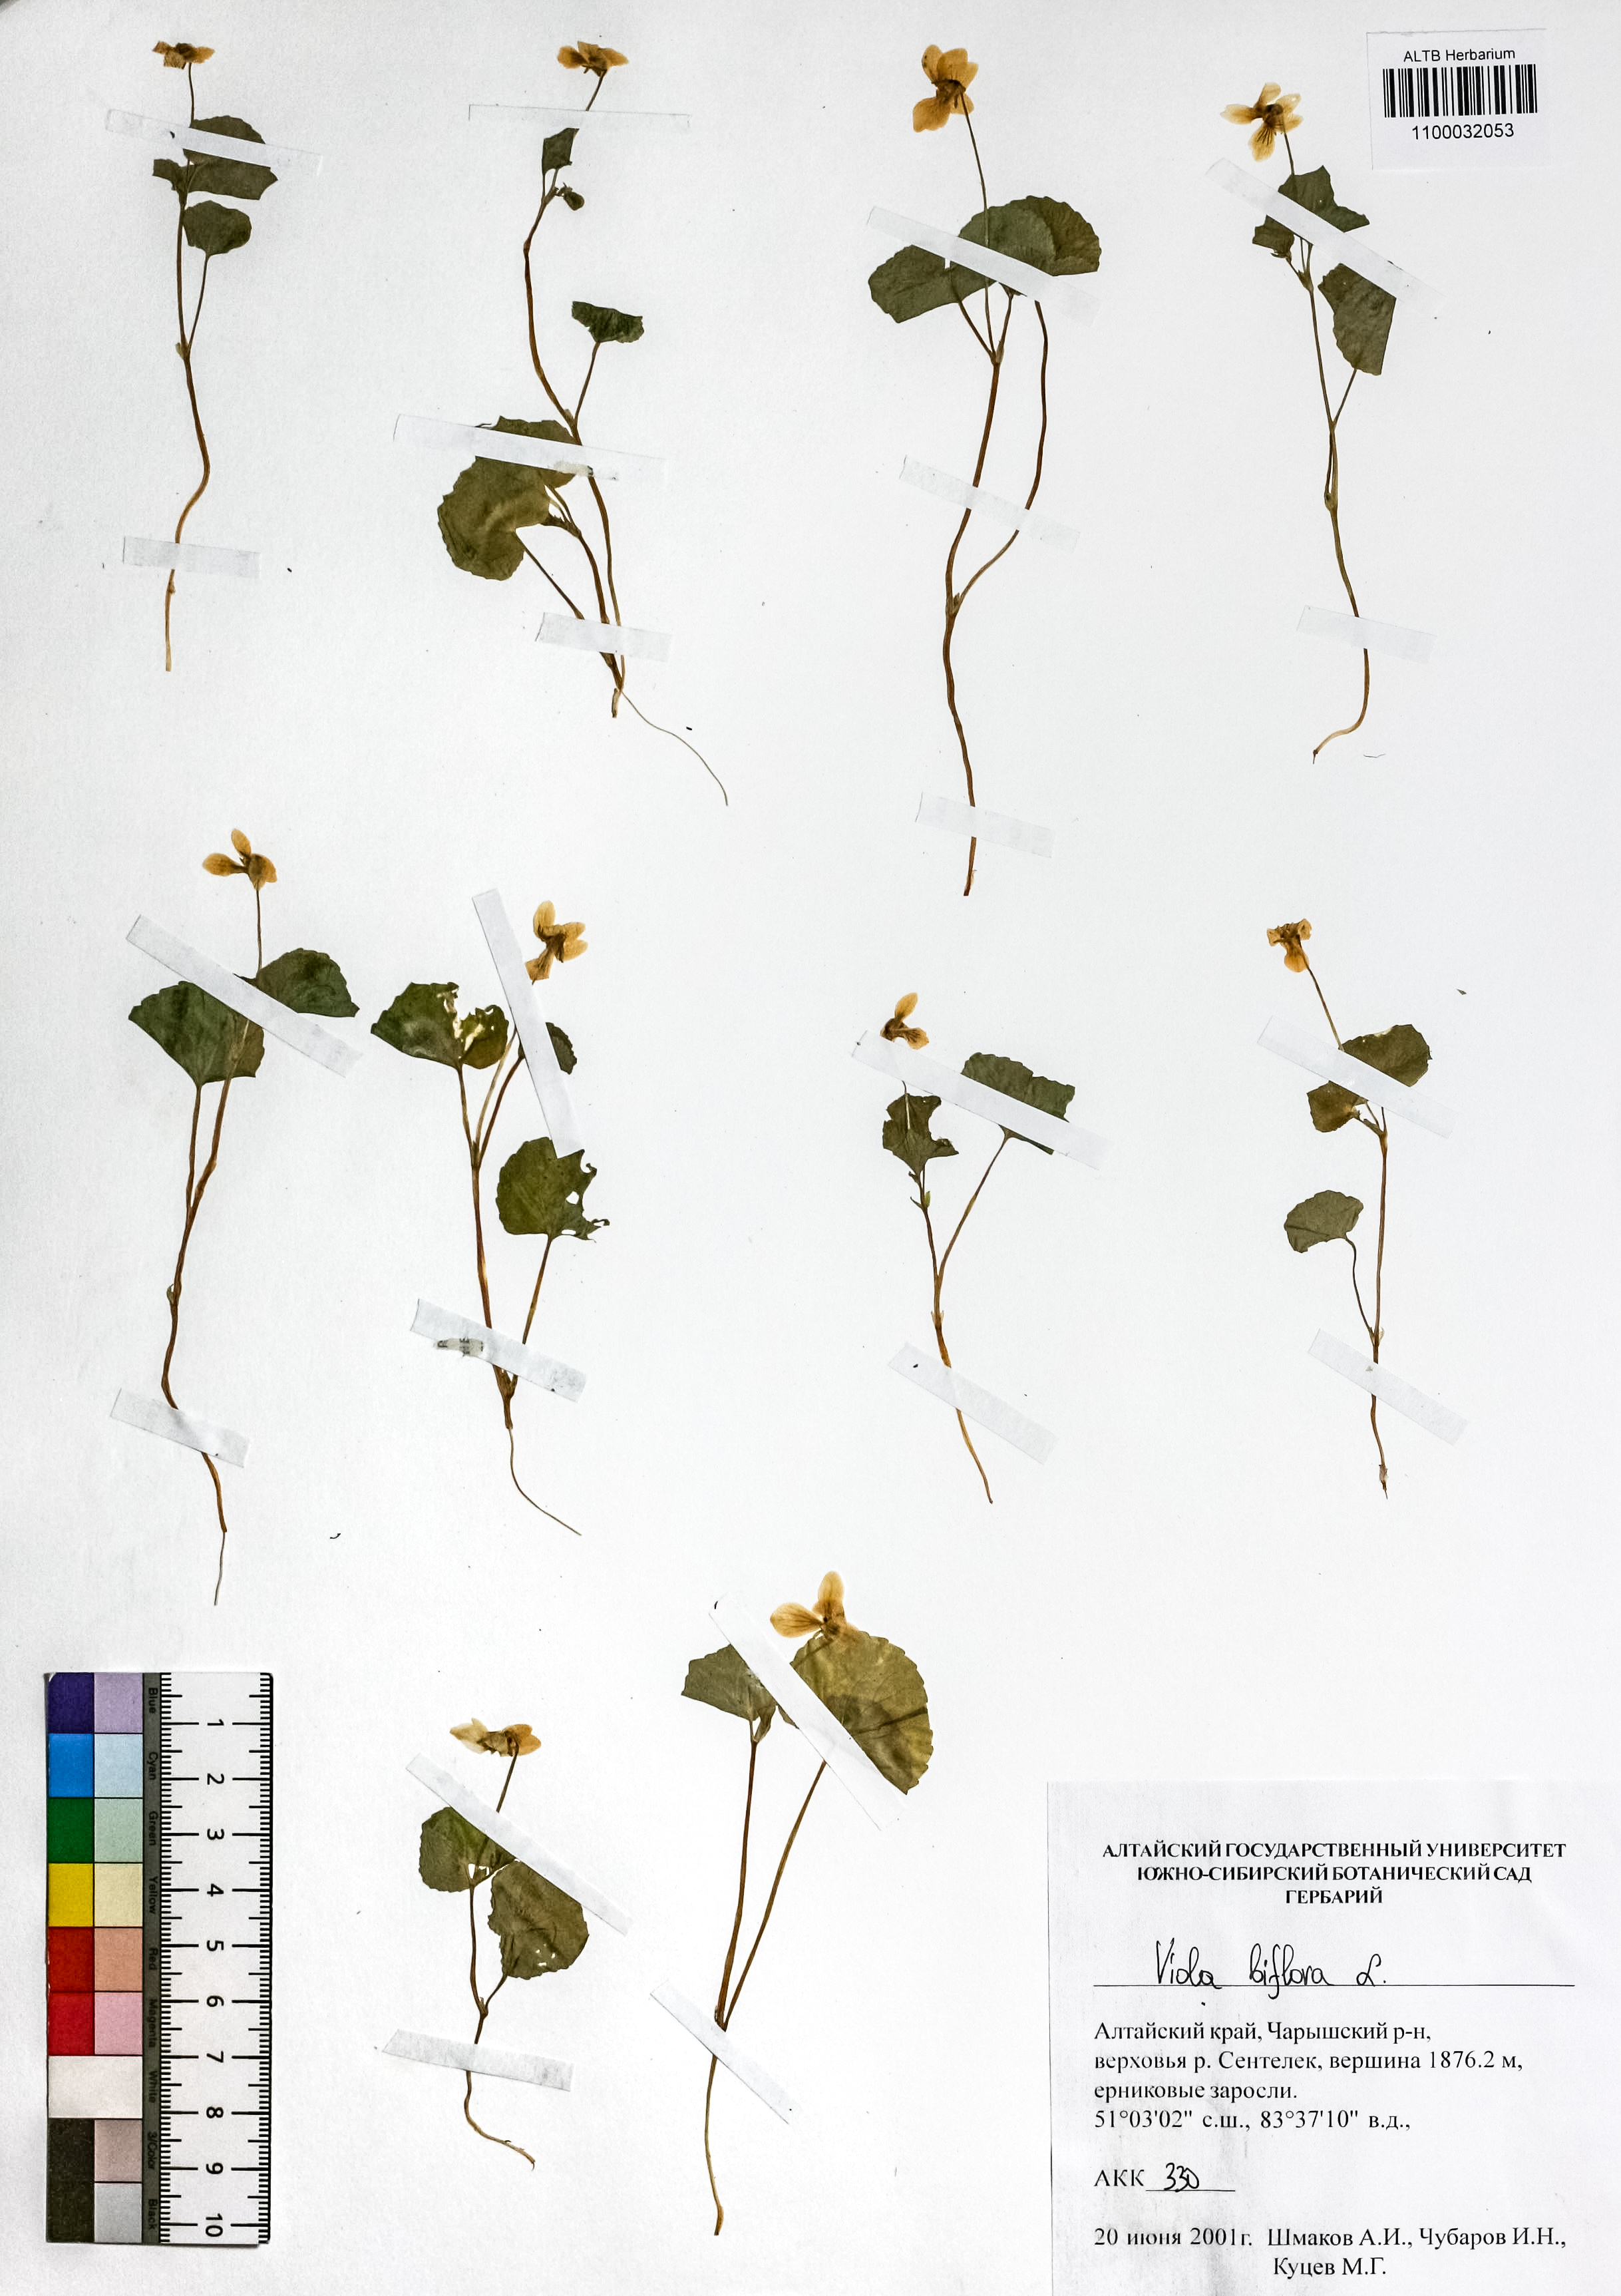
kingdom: Plantae
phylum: Tracheophyta
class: Magnoliopsida
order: Malpighiales
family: Violaceae
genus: Viola
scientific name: Viola biflora
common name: Alpine yellow violet
